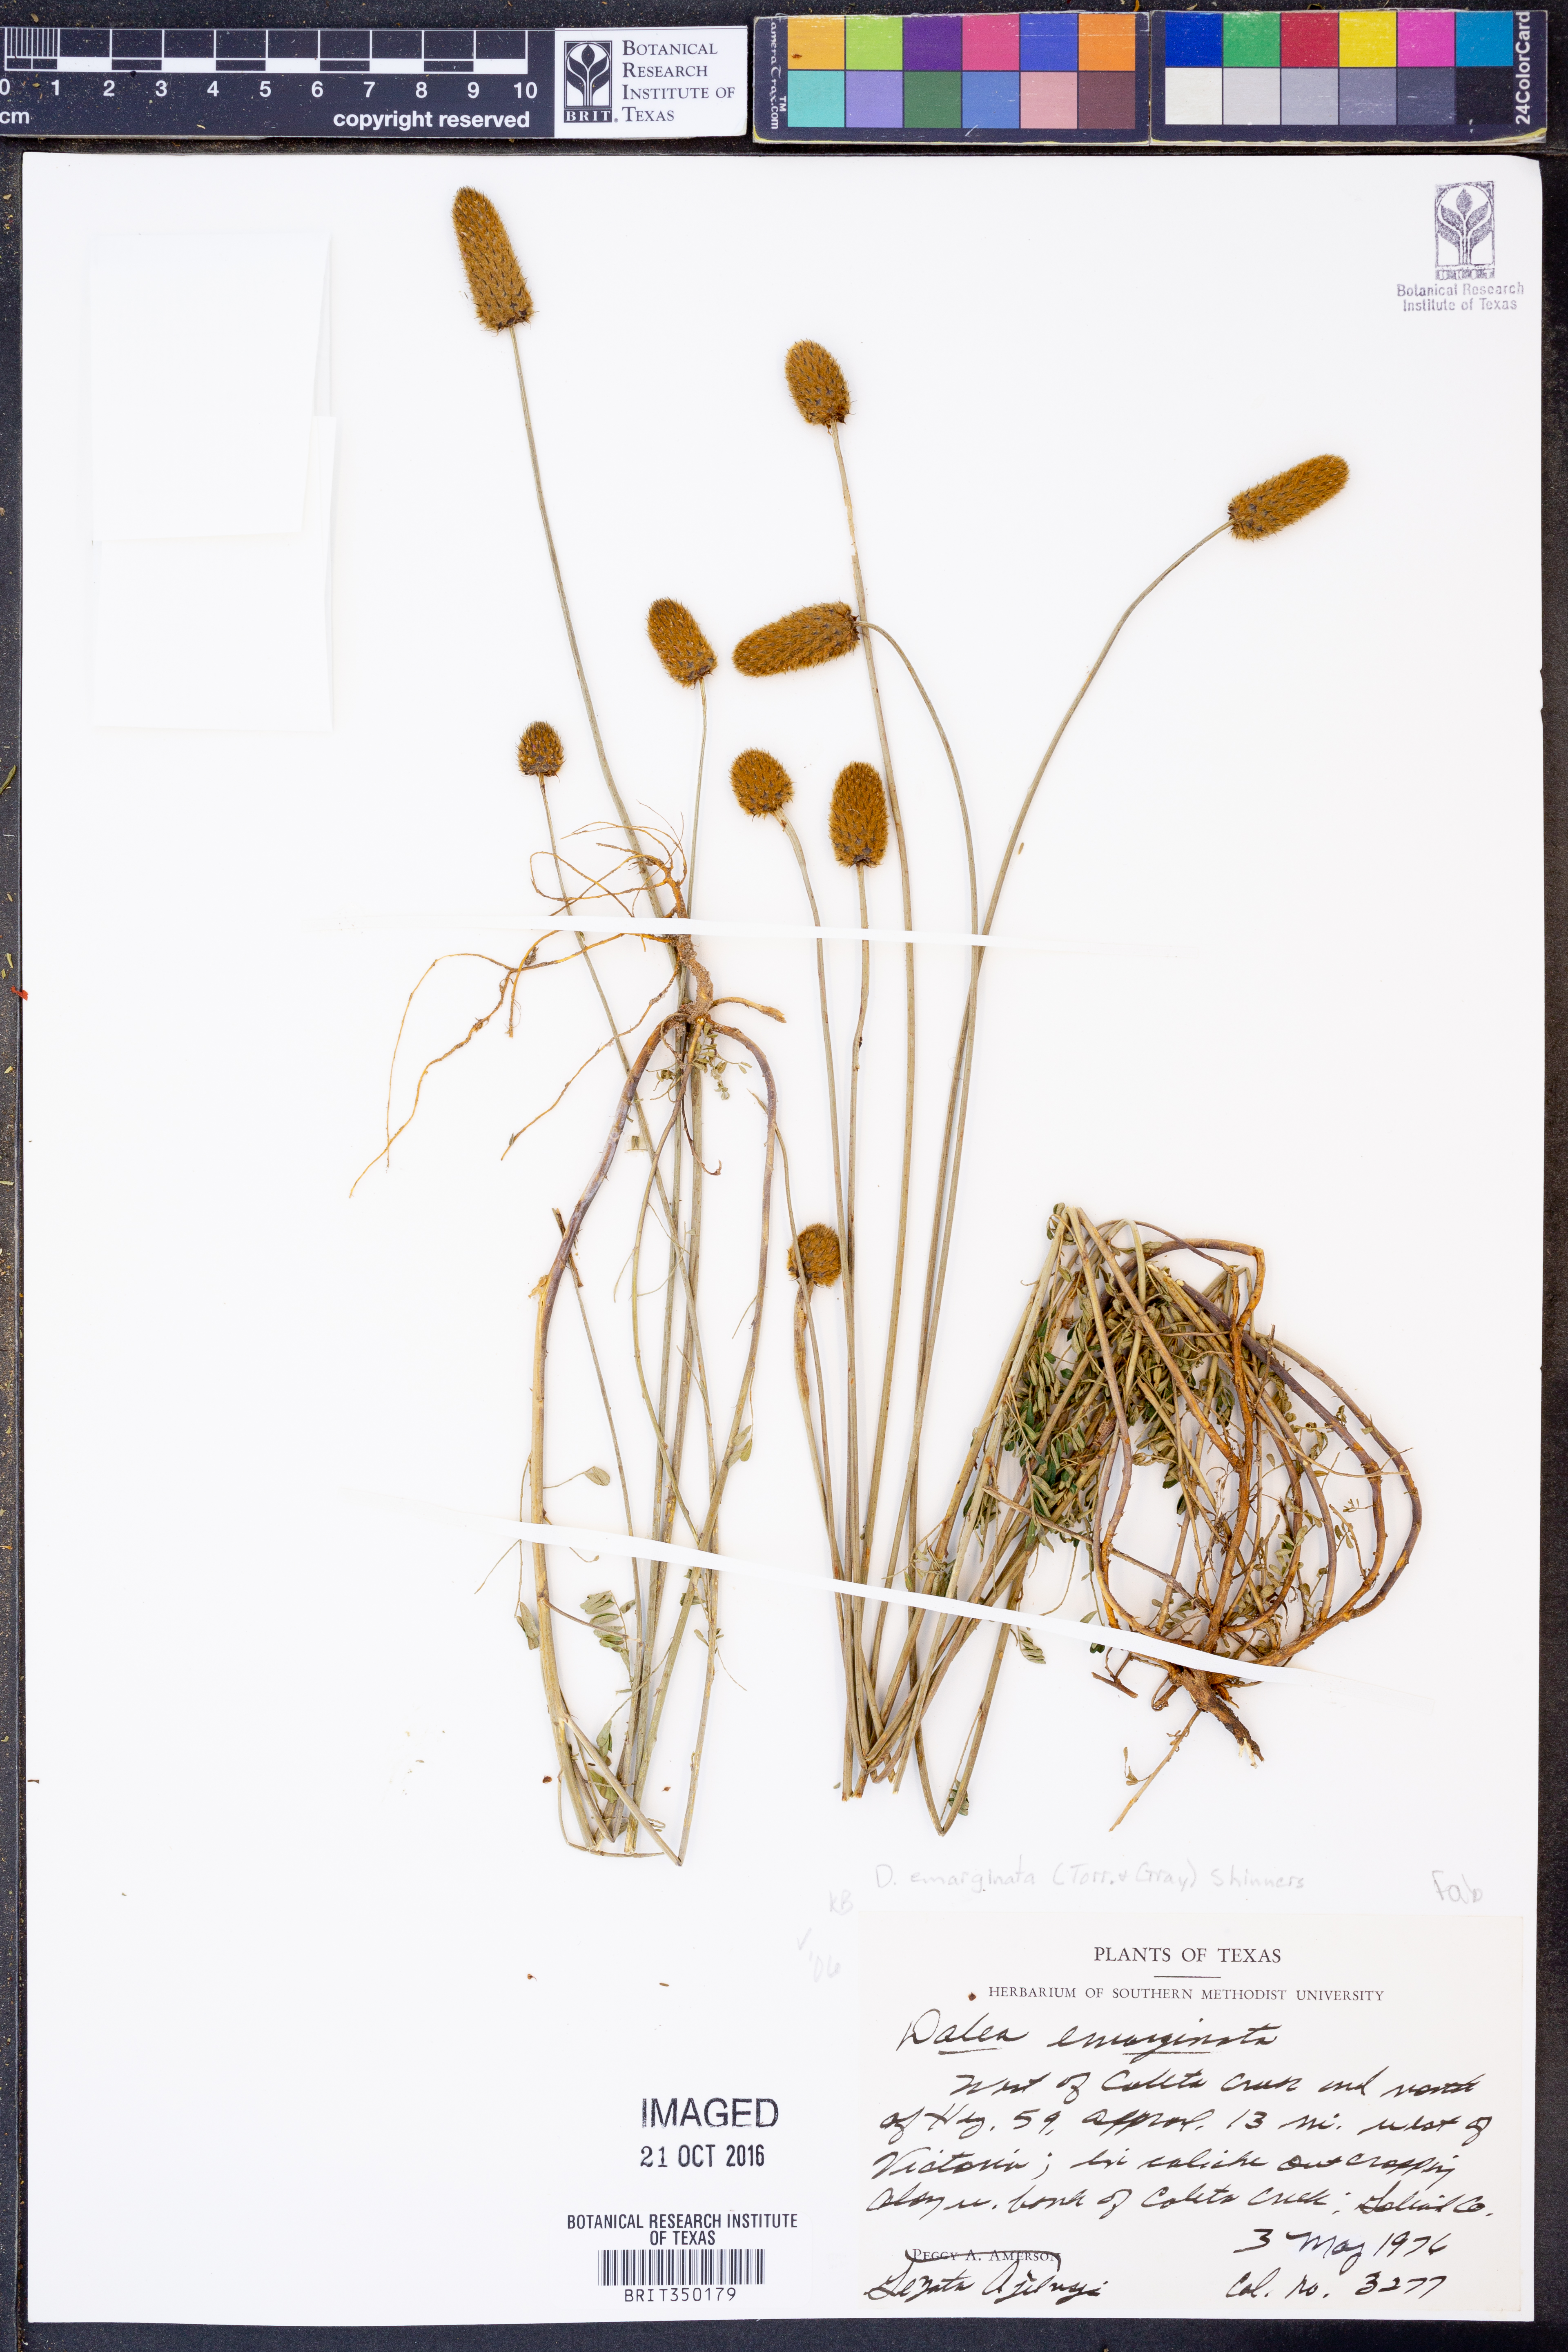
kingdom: Plantae
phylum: Tracheophyta
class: Magnoliopsida
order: Fabales
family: Fabaceae
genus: Dalea
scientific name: Dalea emarginata
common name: Wedgeleaf prairie clover
